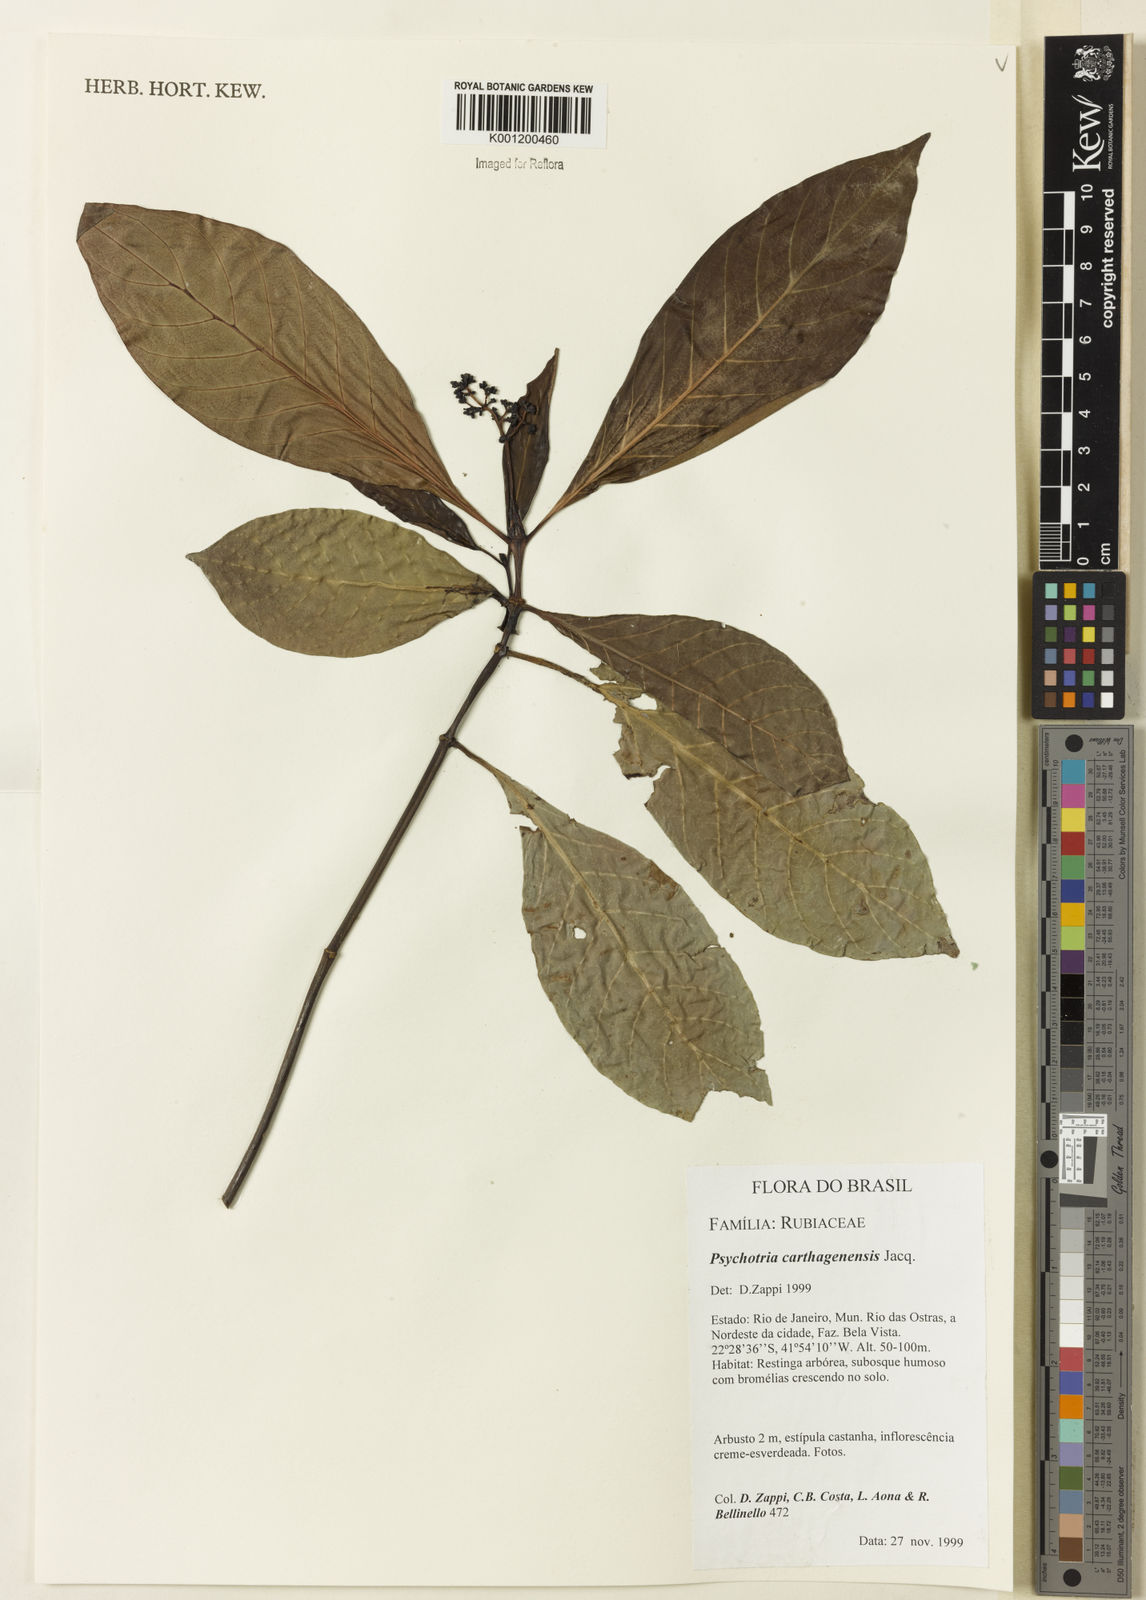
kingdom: Plantae
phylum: Tracheophyta
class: Magnoliopsida
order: Gentianales
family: Rubiaceae
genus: Psychotria
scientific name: Psychotria carthagenensis
